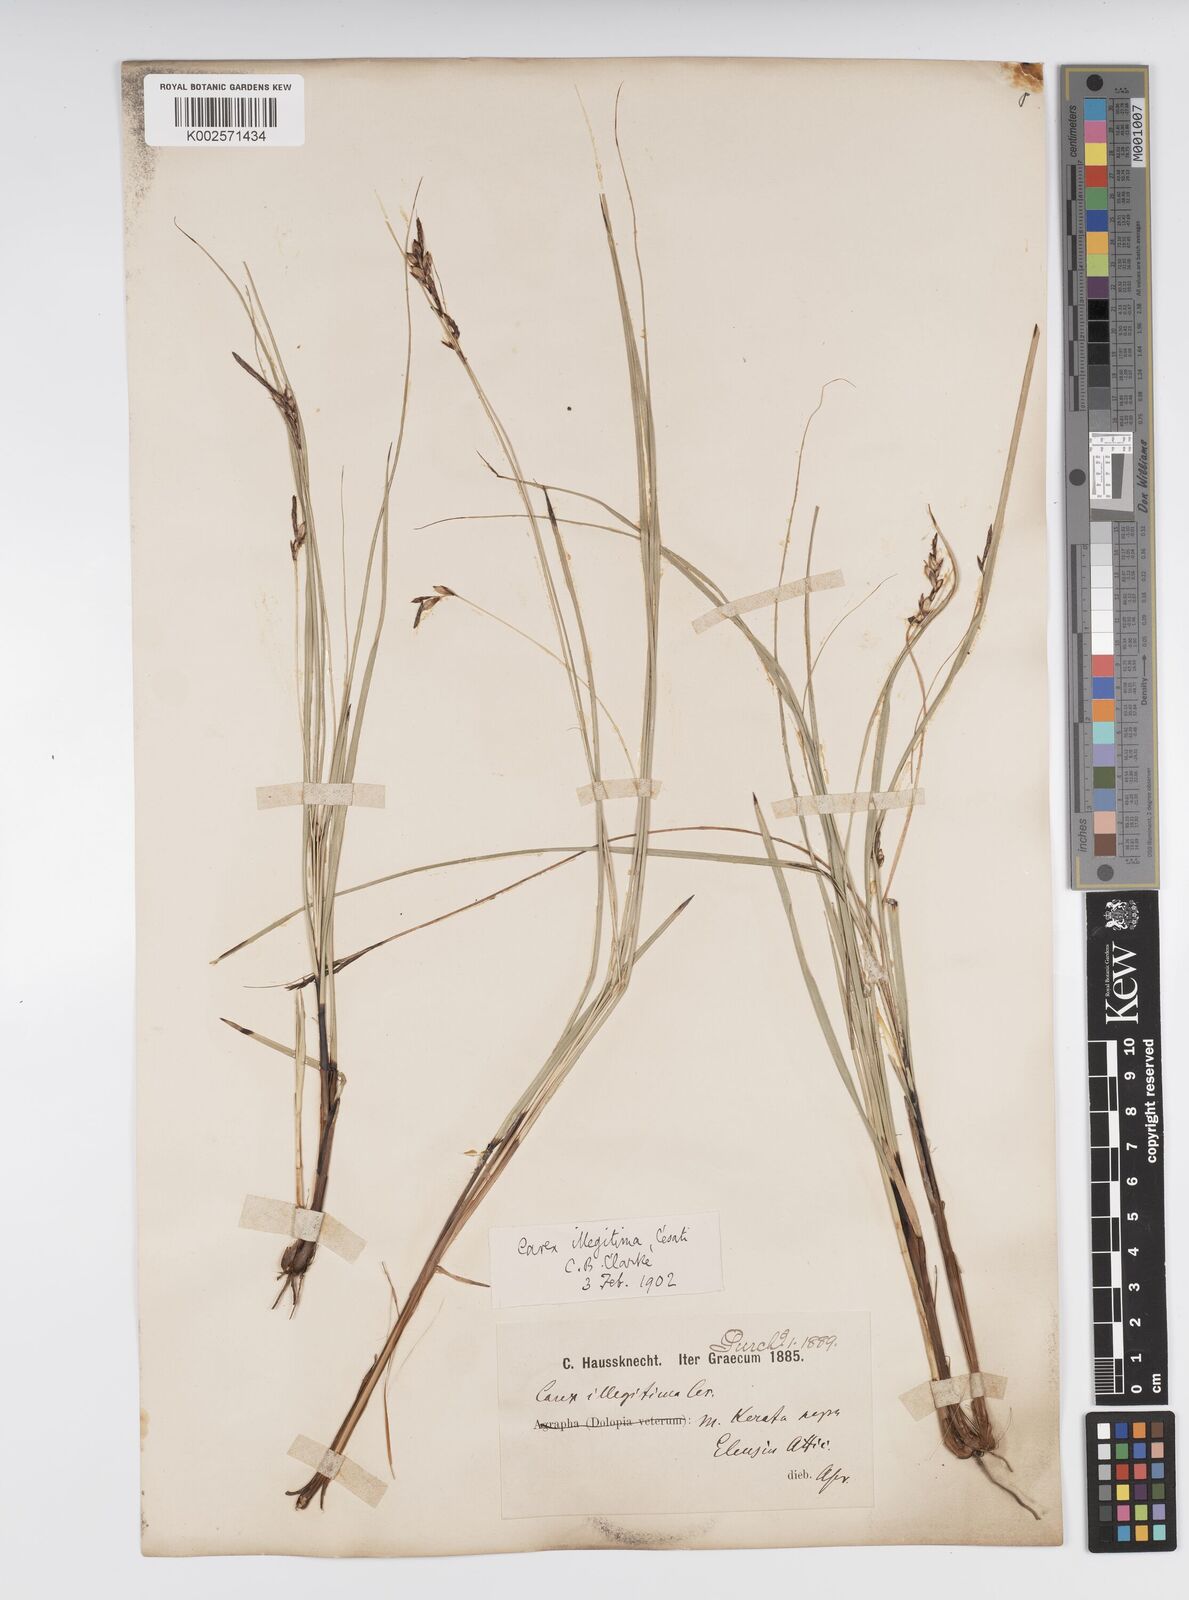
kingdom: Plantae
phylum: Tracheophyta
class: Liliopsida
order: Poales
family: Cyperaceae
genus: Carex
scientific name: Carex illegitima
